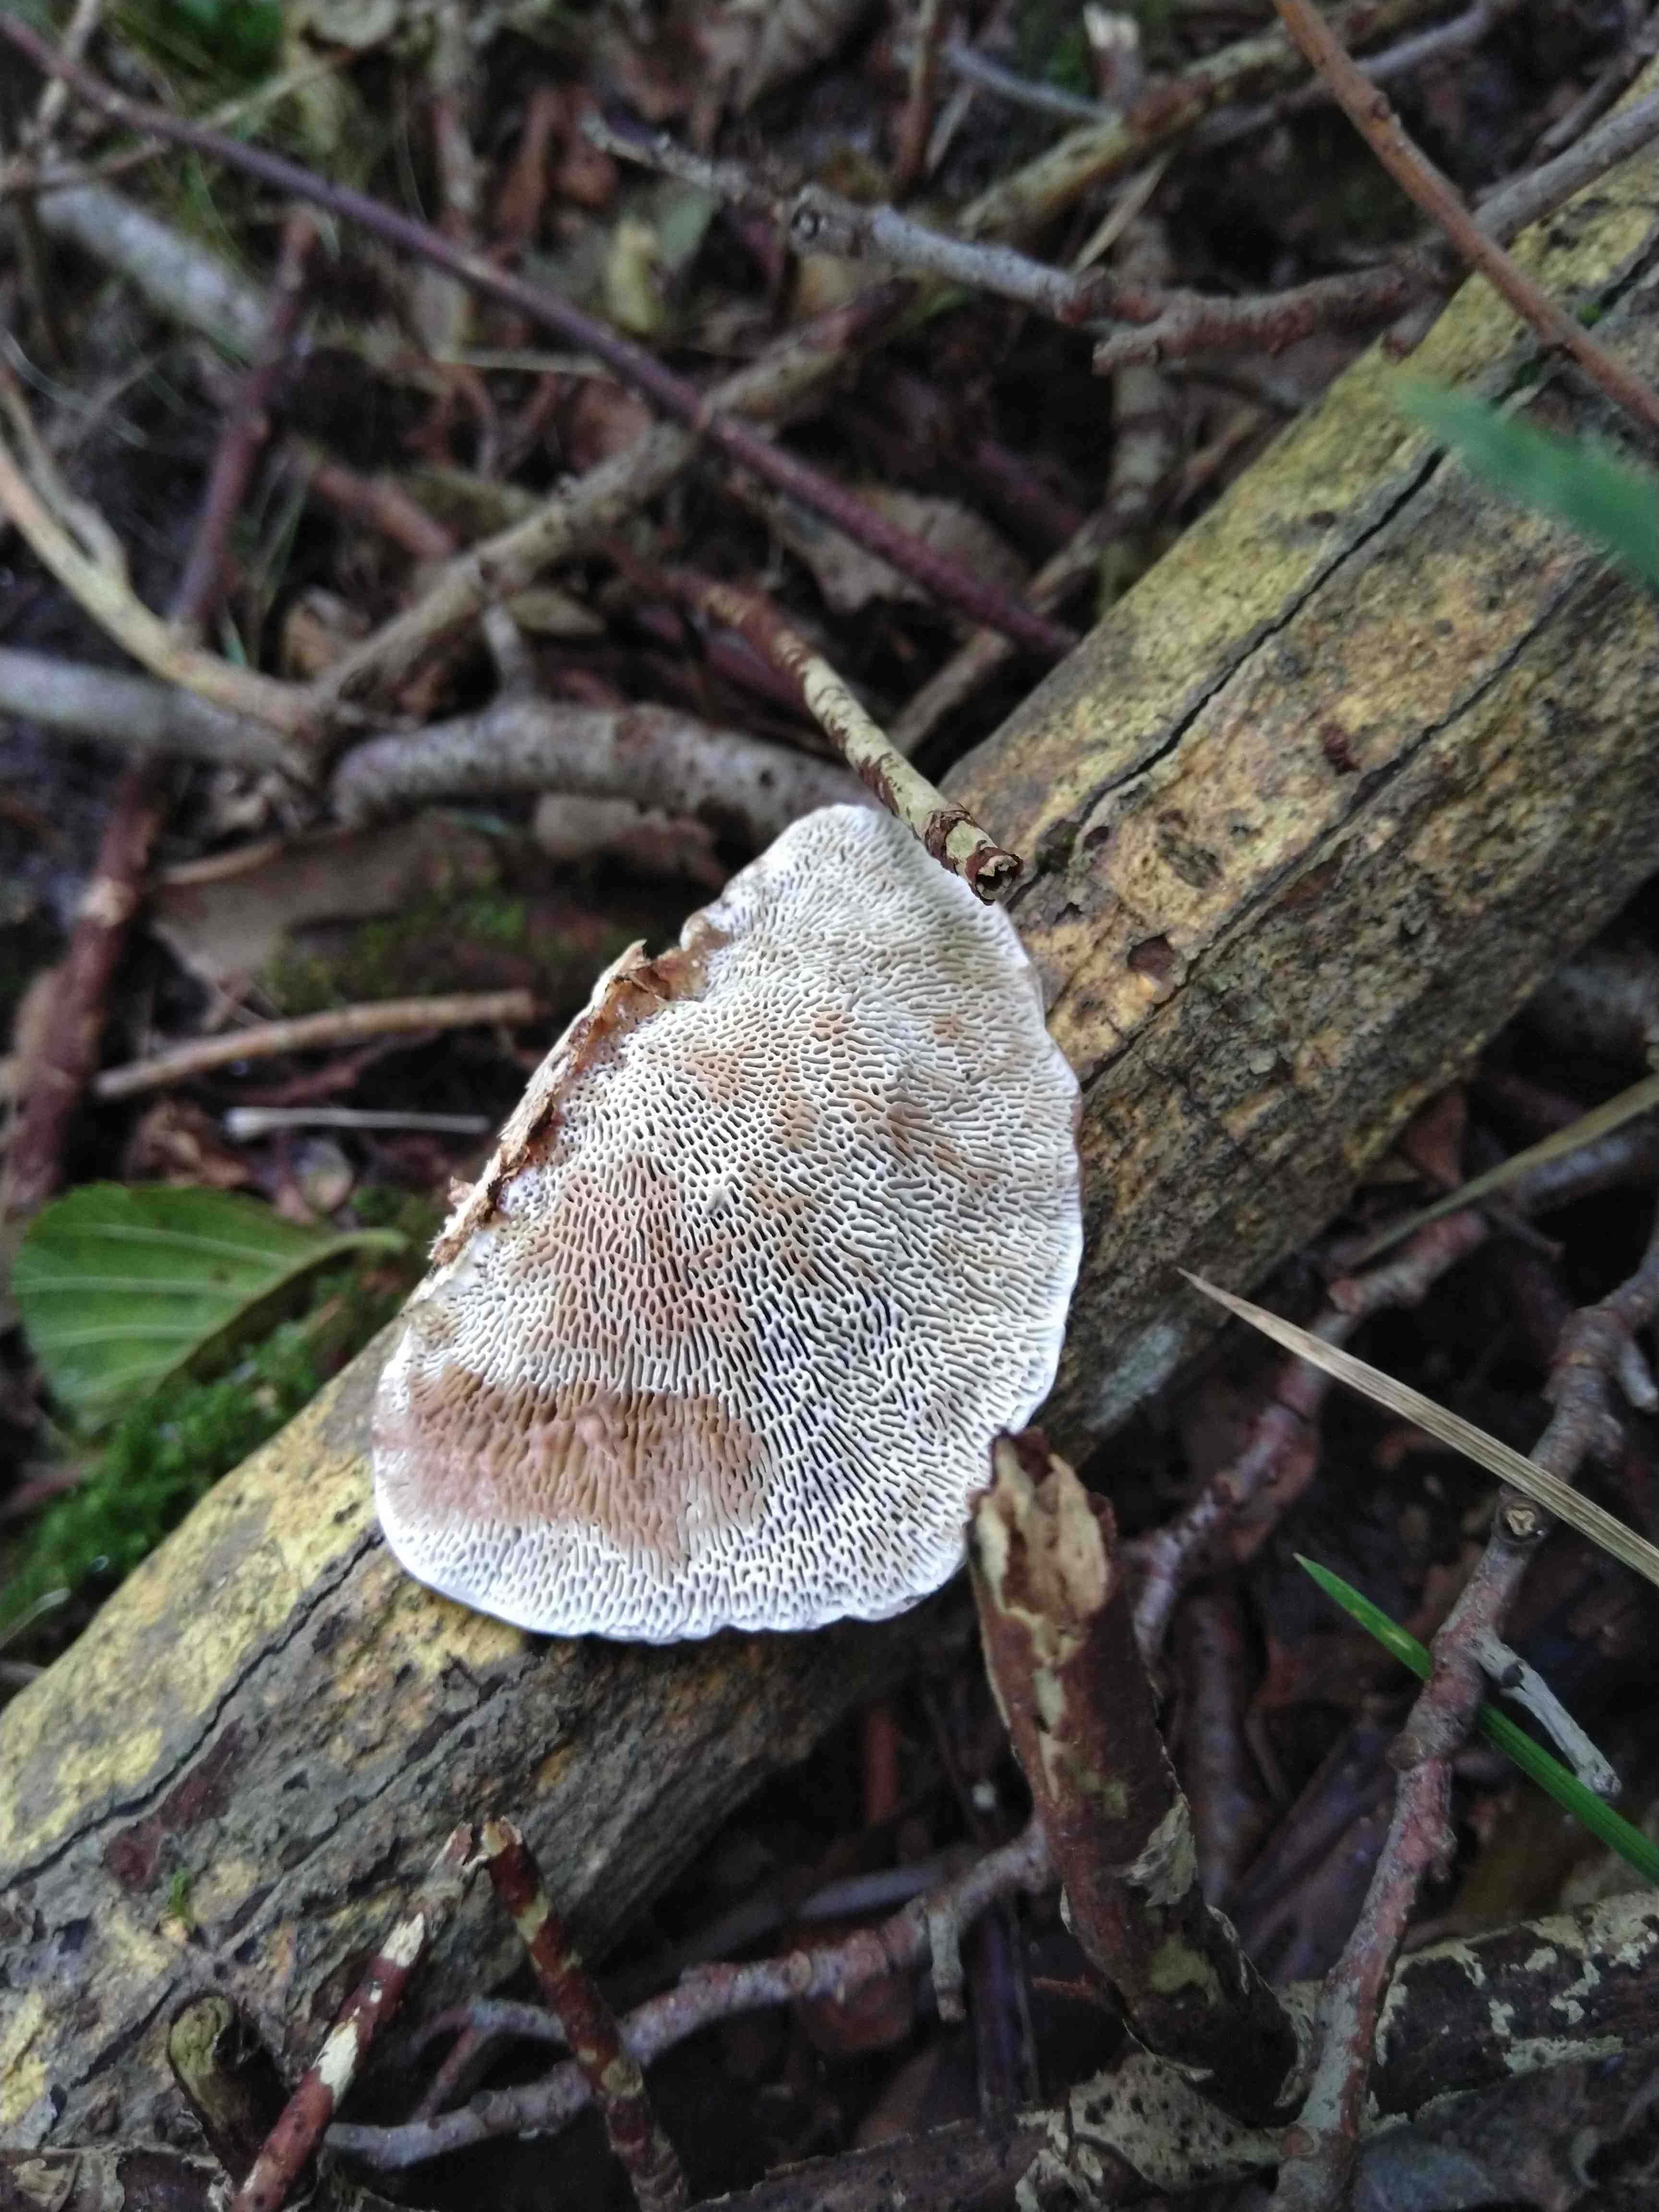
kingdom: Fungi
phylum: Basidiomycota
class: Agaricomycetes
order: Polyporales
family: Polyporaceae
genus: Daedaleopsis
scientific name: Daedaleopsis confragosa
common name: rødmende læderporesvamp
